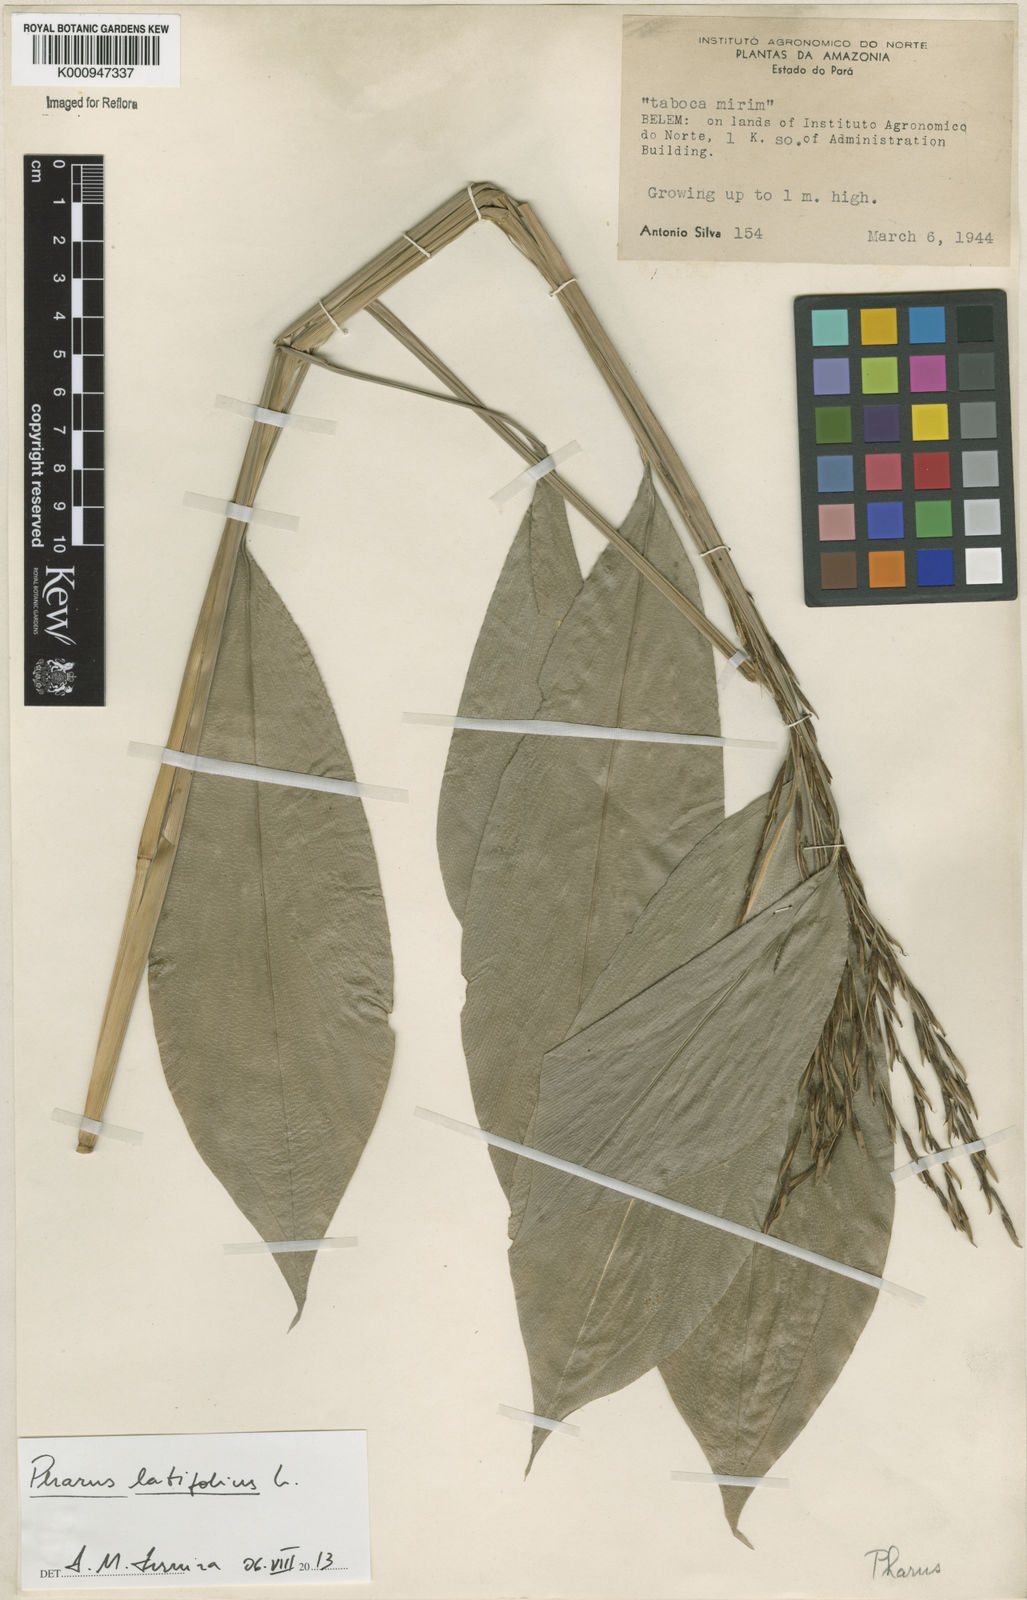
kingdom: Plantae
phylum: Tracheophyta
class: Liliopsida
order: Poales
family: Poaceae
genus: Pharus
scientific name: Pharus latifolius
